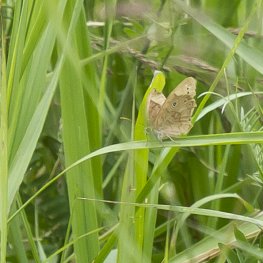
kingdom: Animalia
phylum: Arthropoda
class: Insecta
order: Lepidoptera
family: Nymphalidae
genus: Lethe
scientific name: Lethe eurydice
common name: Eyed Brown
